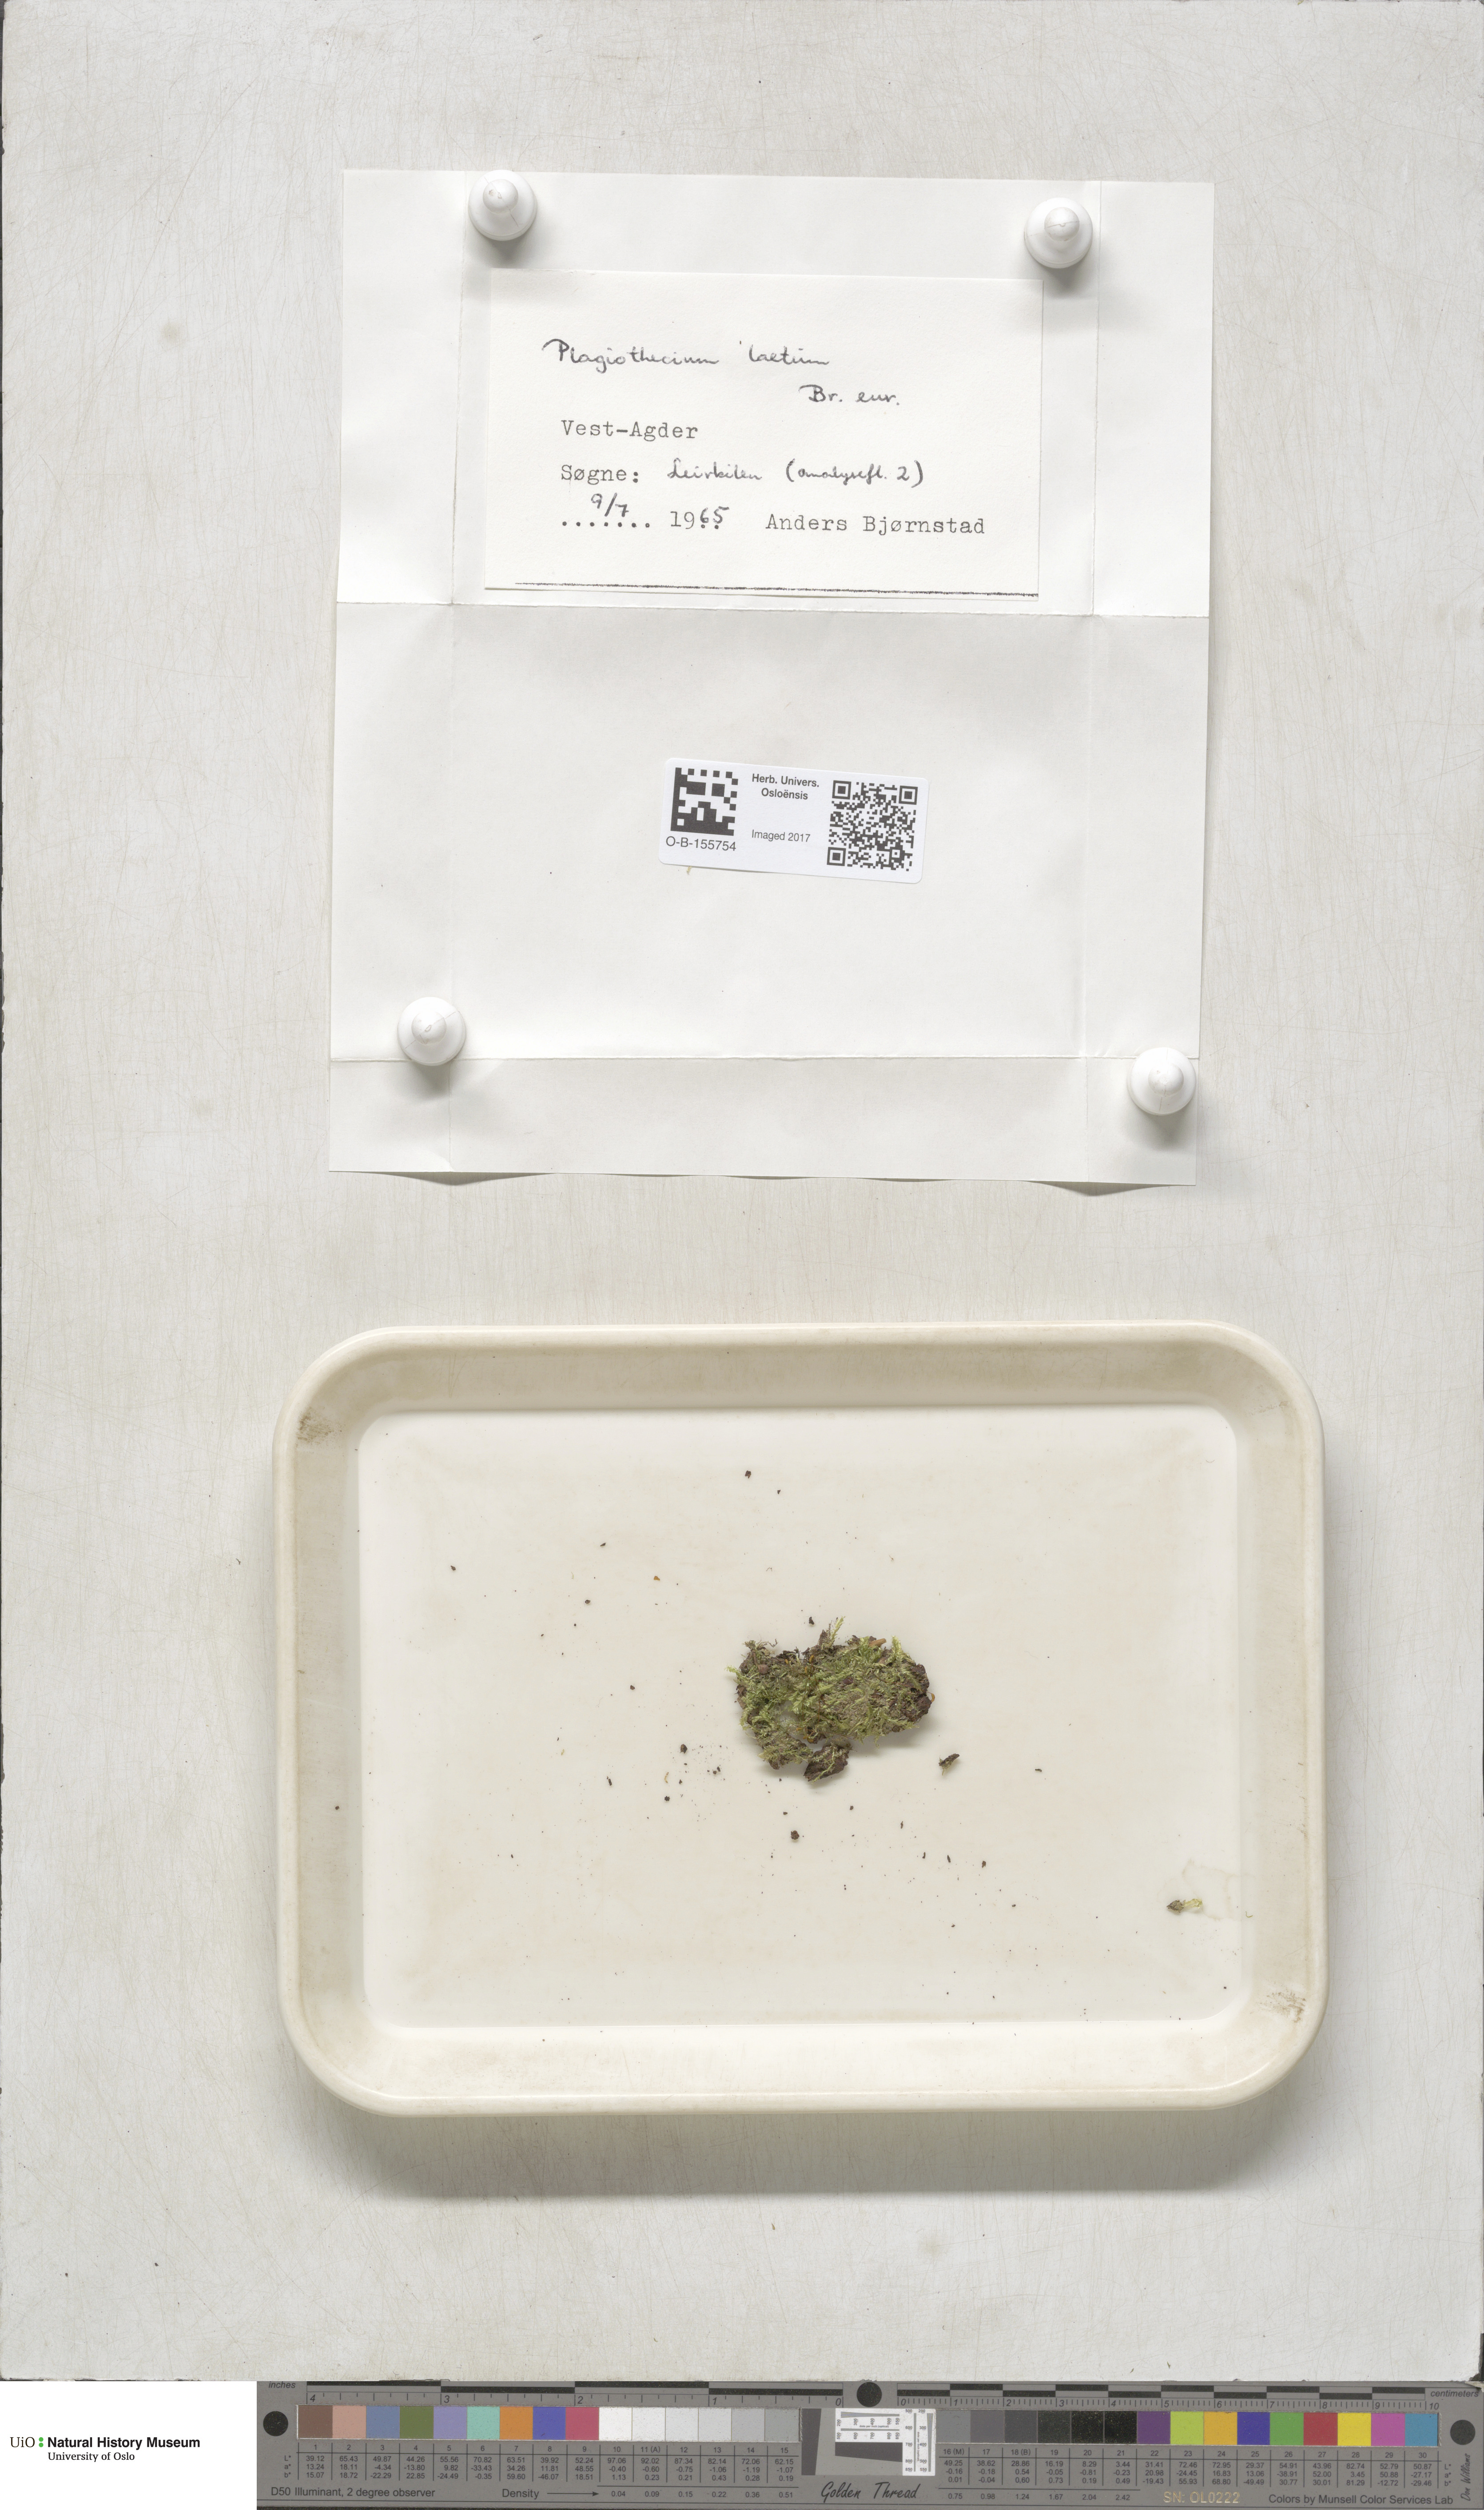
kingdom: Plantae
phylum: Bryophyta
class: Bryopsida
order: Hypnales
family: Plagiotheciaceae
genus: Plagiothecium
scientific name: Plagiothecium laetum
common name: Bright silk moss
